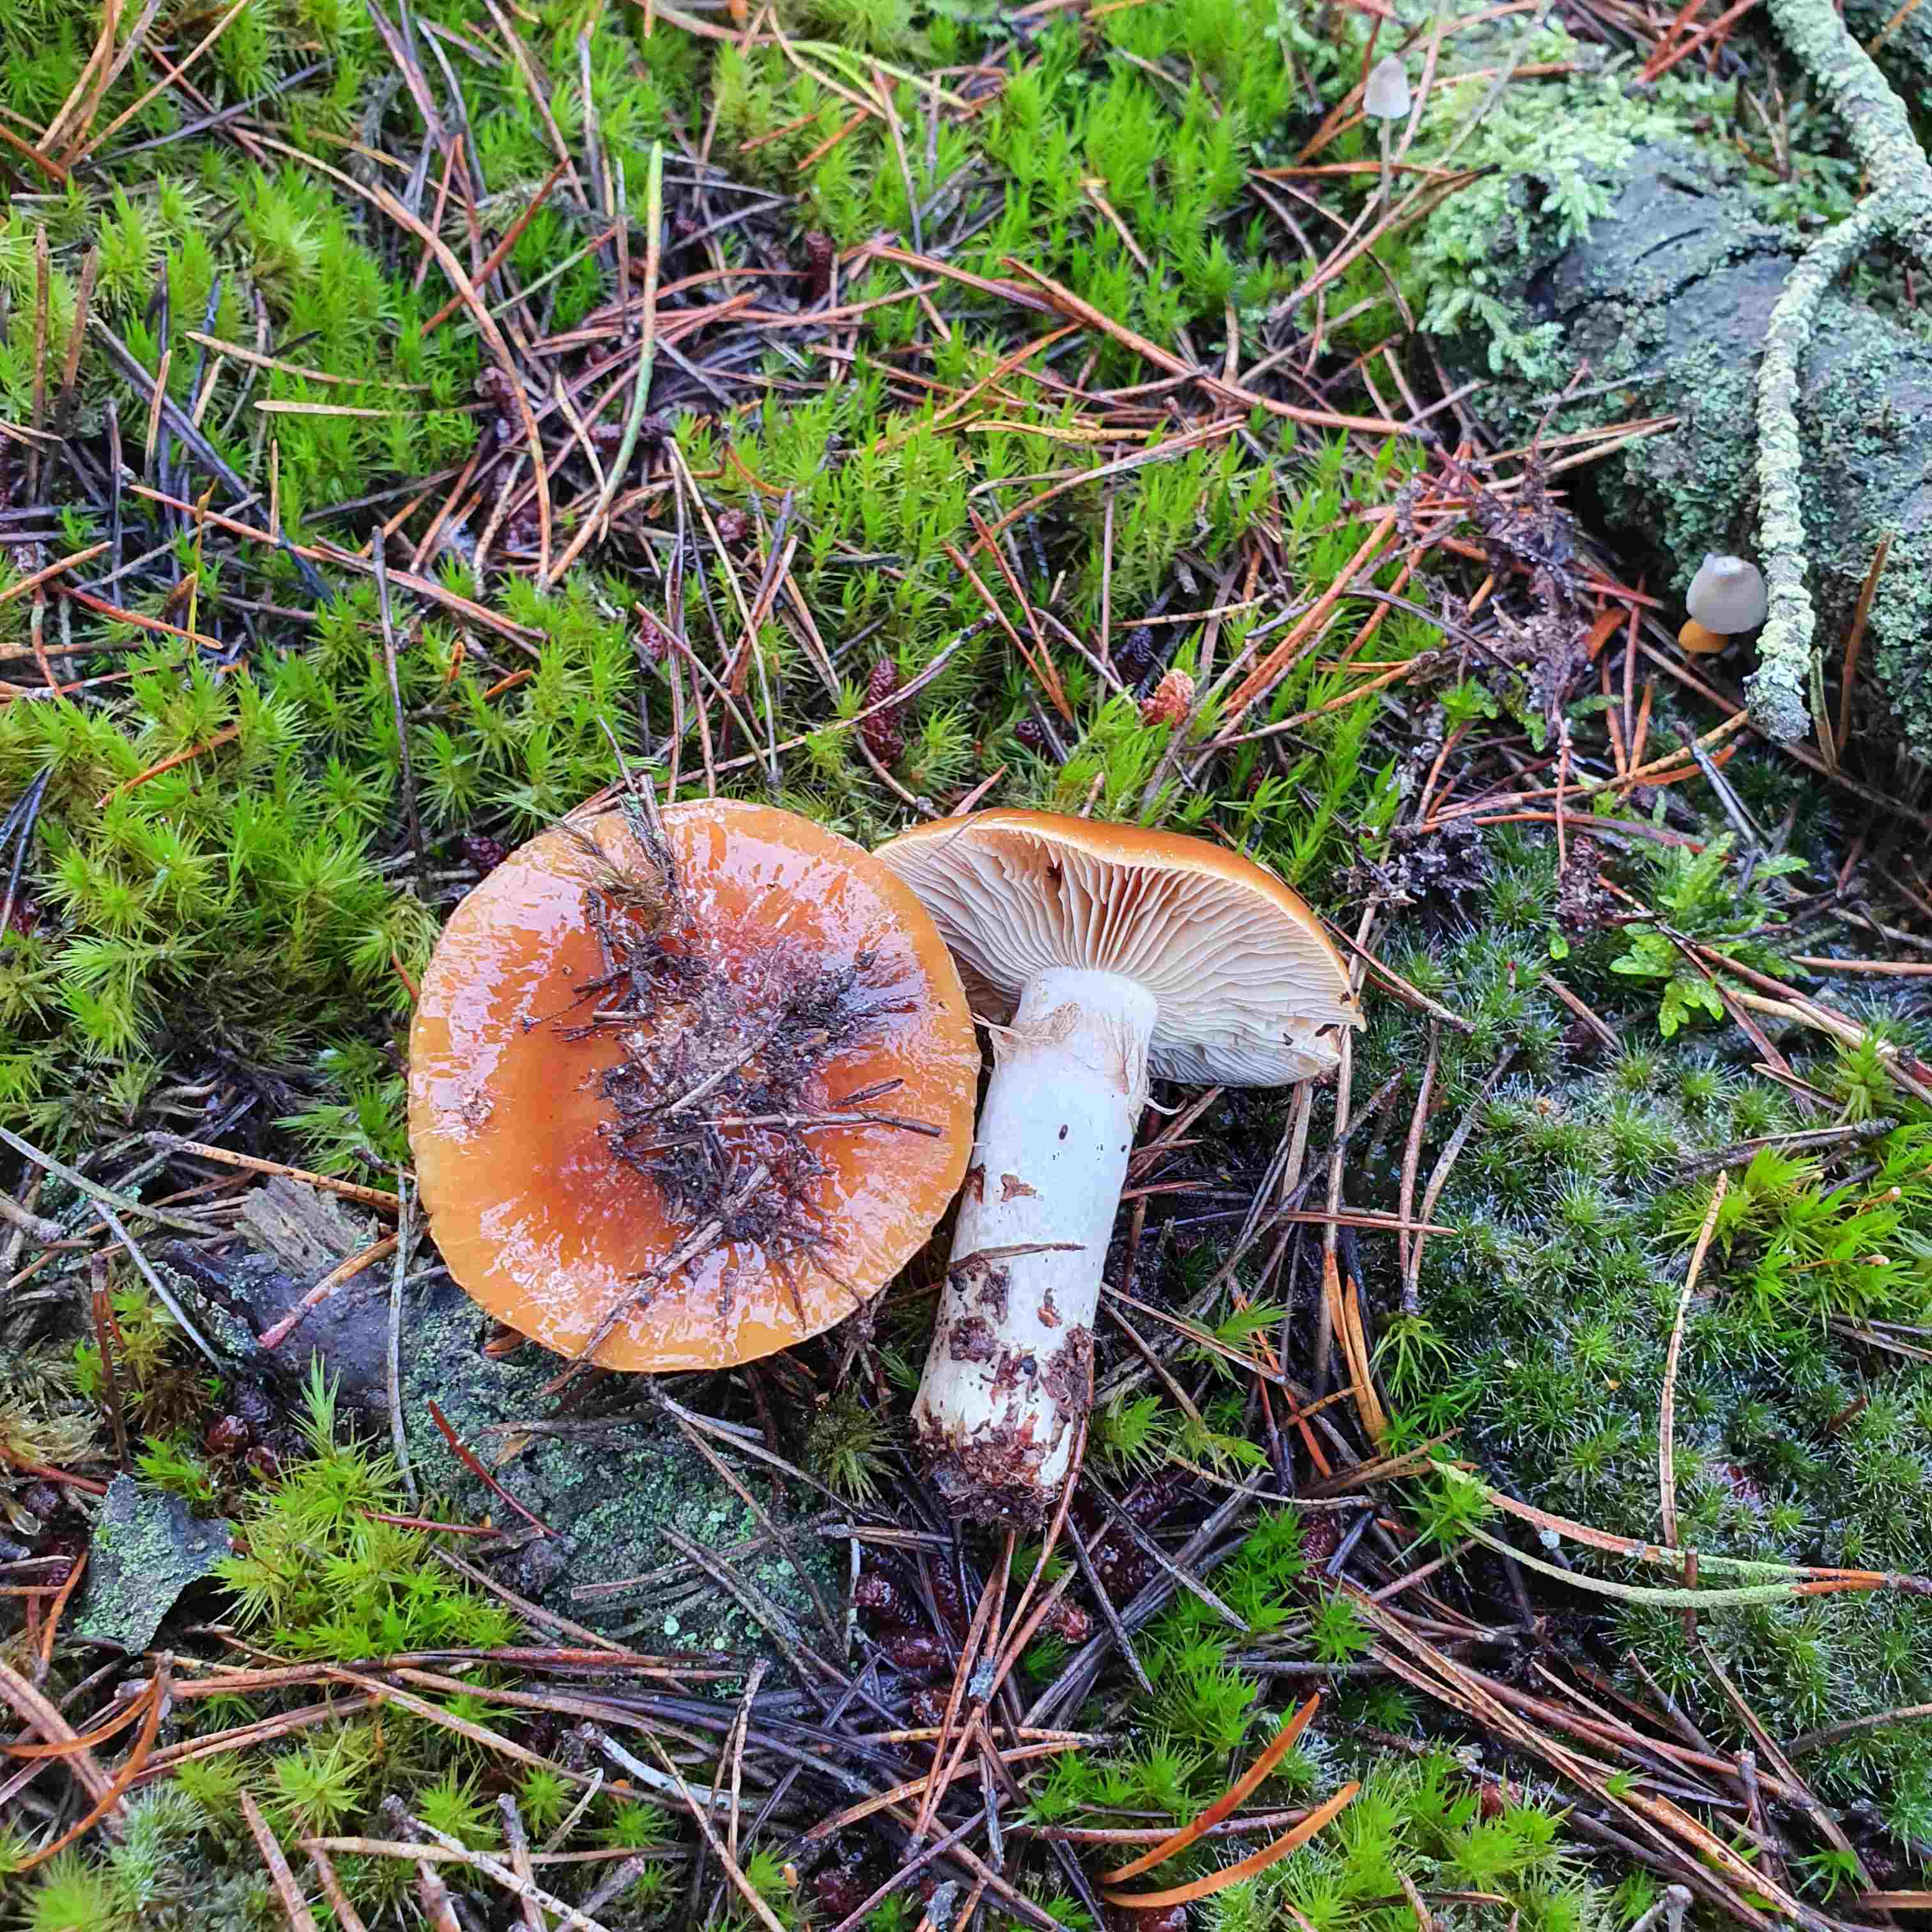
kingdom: Fungi
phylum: Basidiomycota
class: Agaricomycetes
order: Agaricales
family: Cortinariaceae
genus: Cortinarius
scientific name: Cortinarius mucosus
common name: kastaniebrun slørhat
